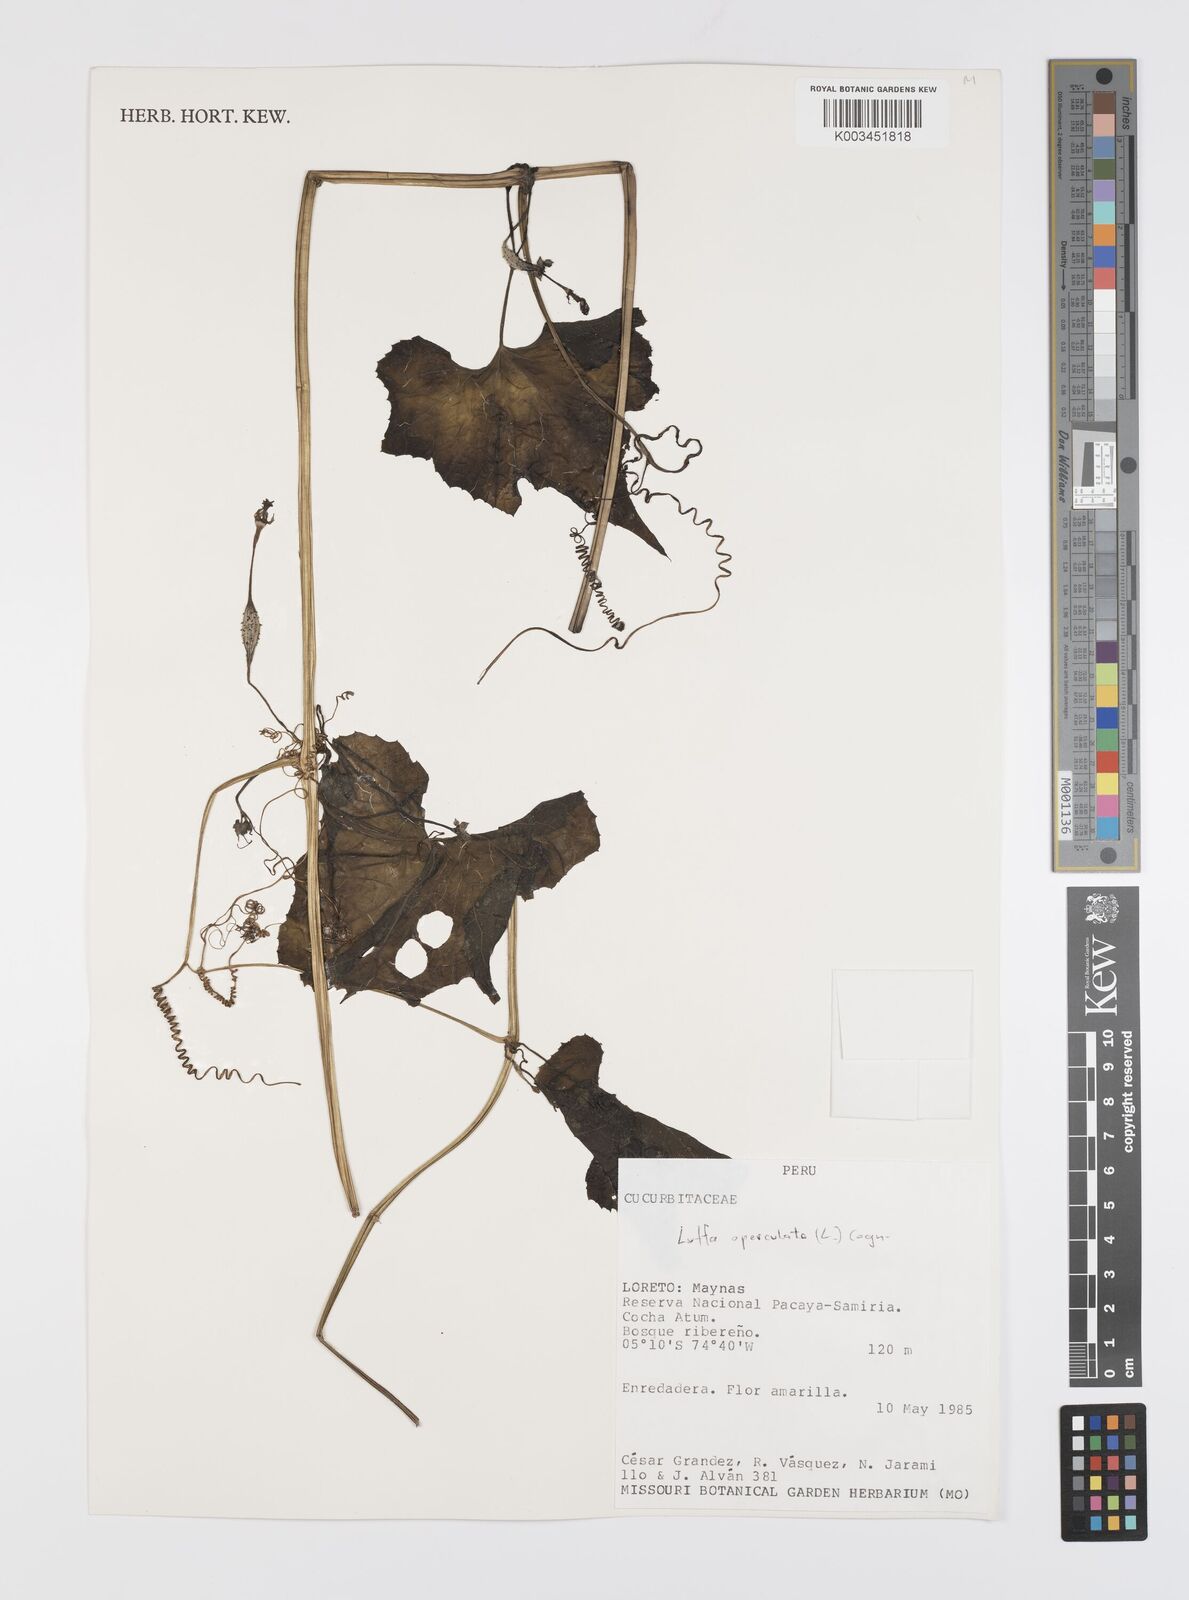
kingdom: Plantae
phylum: Tracheophyta
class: Magnoliopsida
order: Cucurbitales
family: Cucurbitaceae
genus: Luffa
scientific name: Luffa operculata
